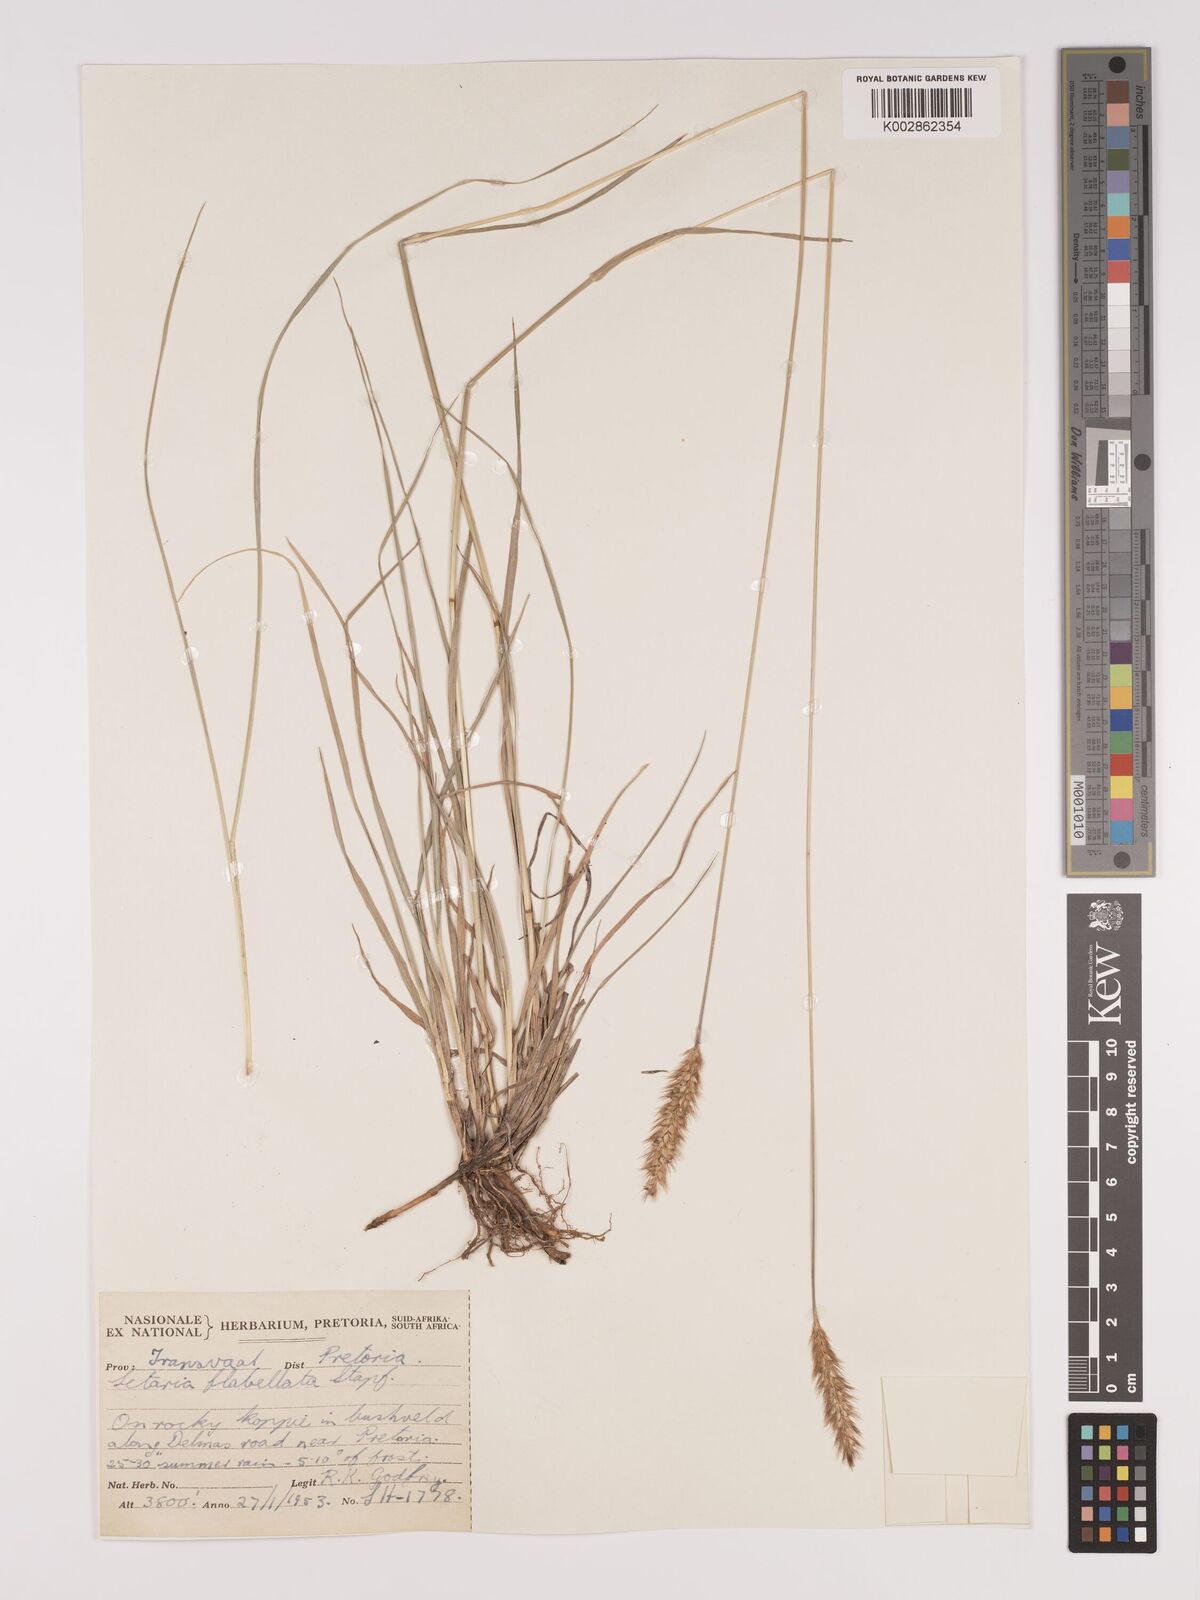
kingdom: Plantae
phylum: Tracheophyta
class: Liliopsida
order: Poales
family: Poaceae
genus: Setaria
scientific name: Setaria sphacelata
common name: African bristlegrass
